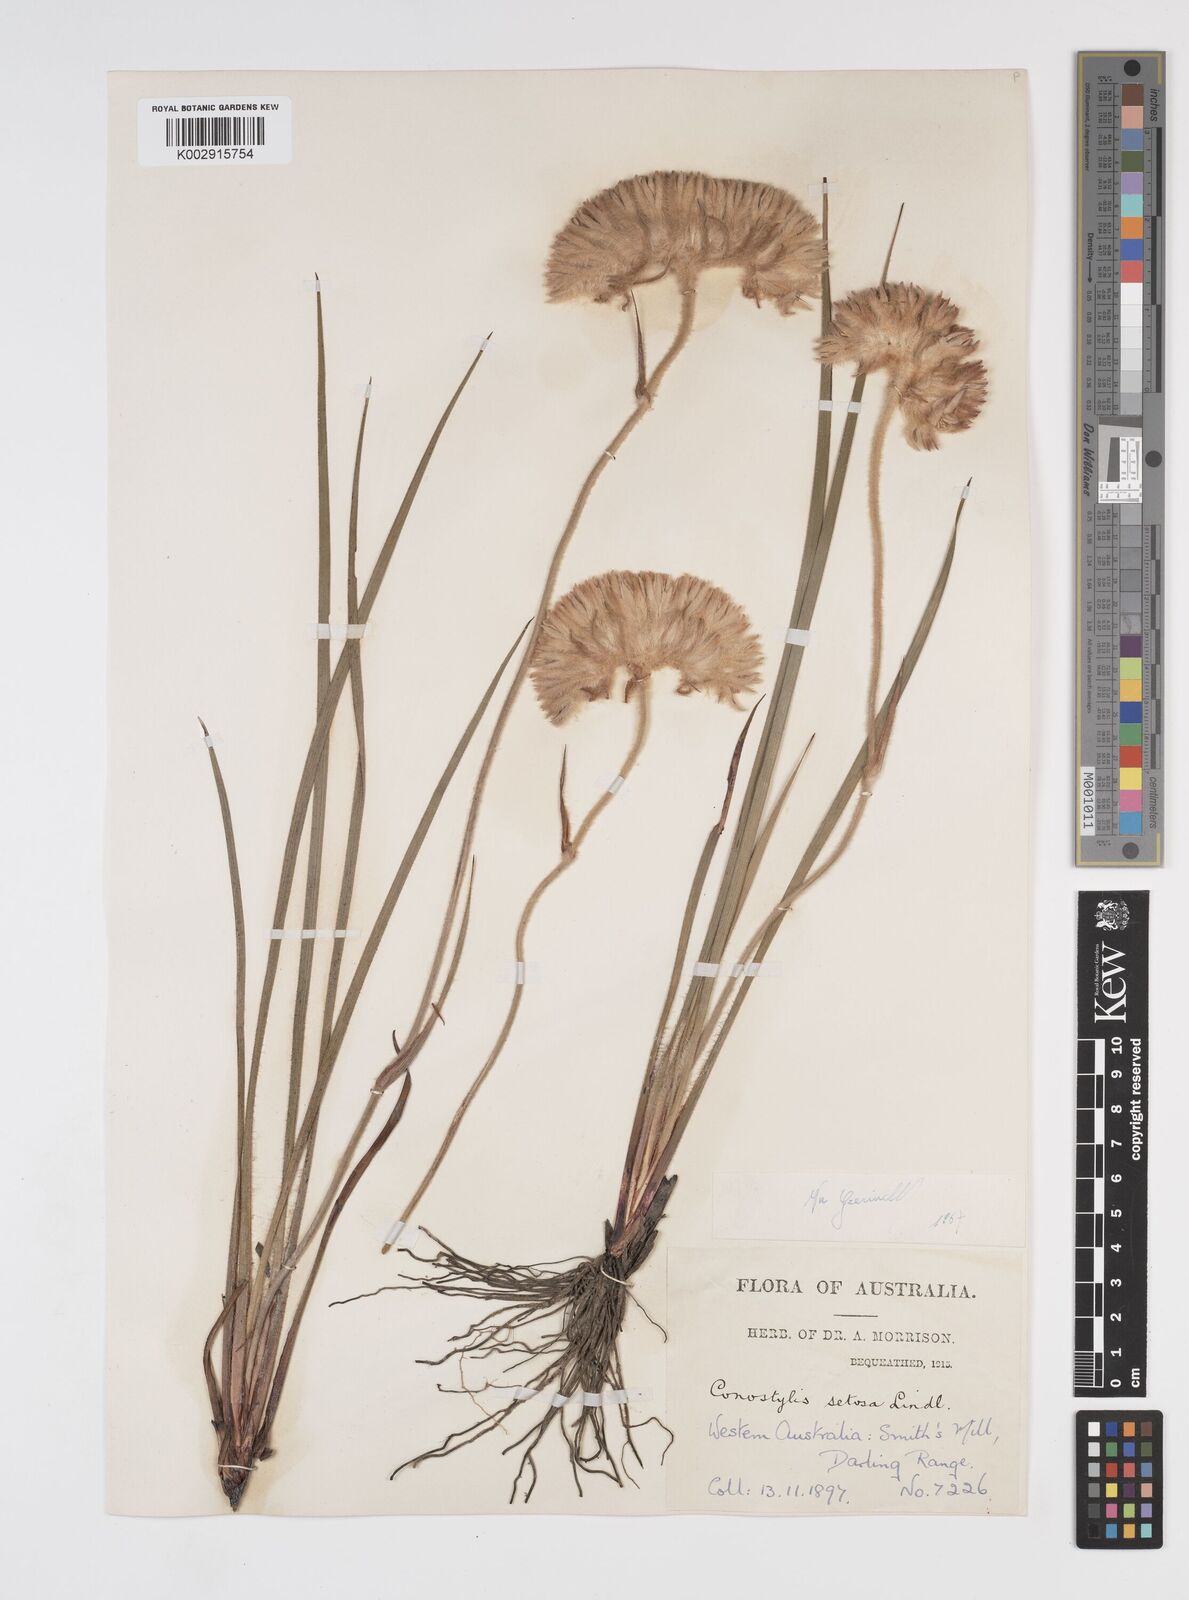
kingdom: Plantae
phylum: Tracheophyta
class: Liliopsida
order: Commelinales
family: Haemodoraceae
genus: Conostylis
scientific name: Conostylis setosa
